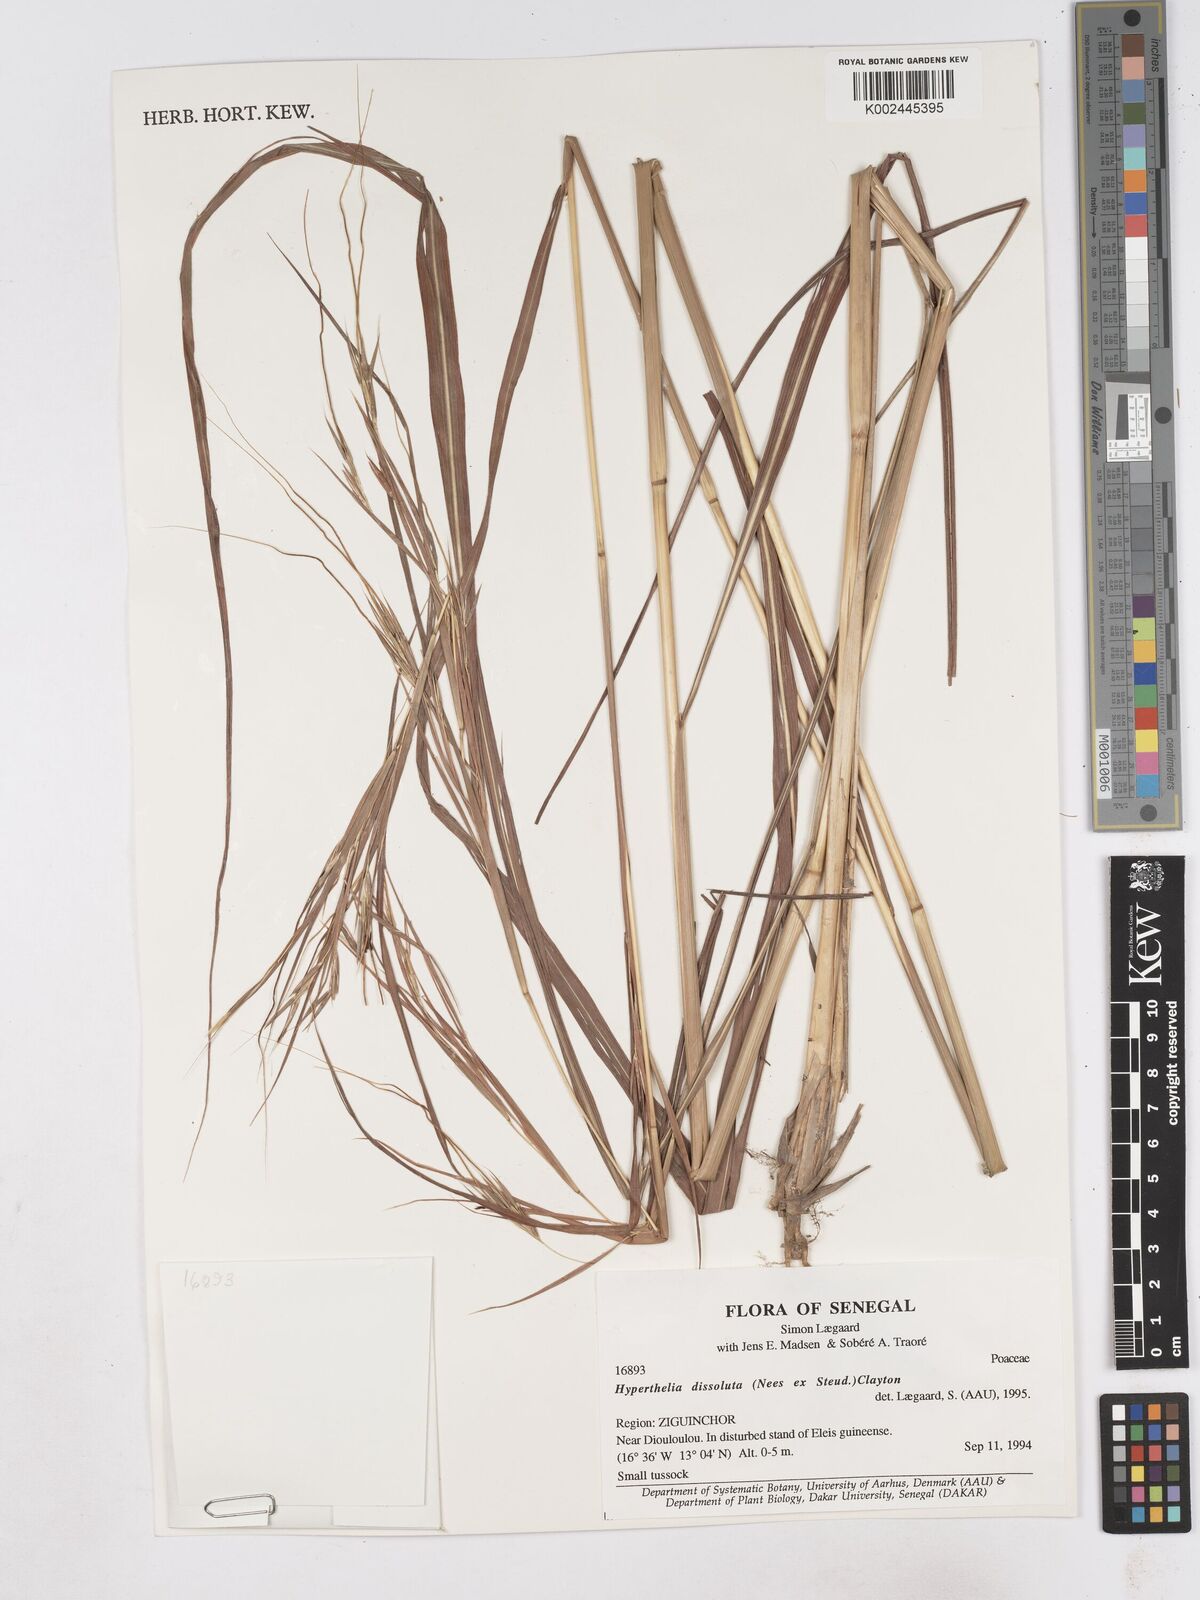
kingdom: Plantae
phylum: Tracheophyta
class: Liliopsida
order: Poales
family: Poaceae
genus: Hyperthelia
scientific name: Hyperthelia dissoluta
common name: Yellow thatching grass
